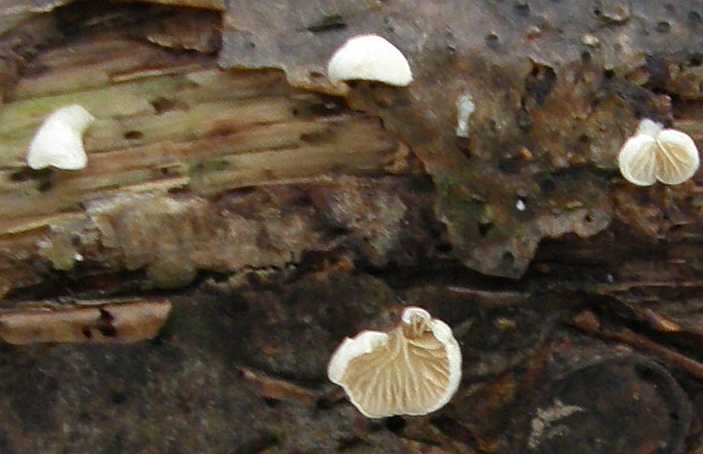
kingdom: Fungi
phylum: Basidiomycota
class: Agaricomycetes
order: Agaricales
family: Crepidotaceae
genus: Crepidotus
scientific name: Crepidotus cesatii
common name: almindelig muslingesvamp
